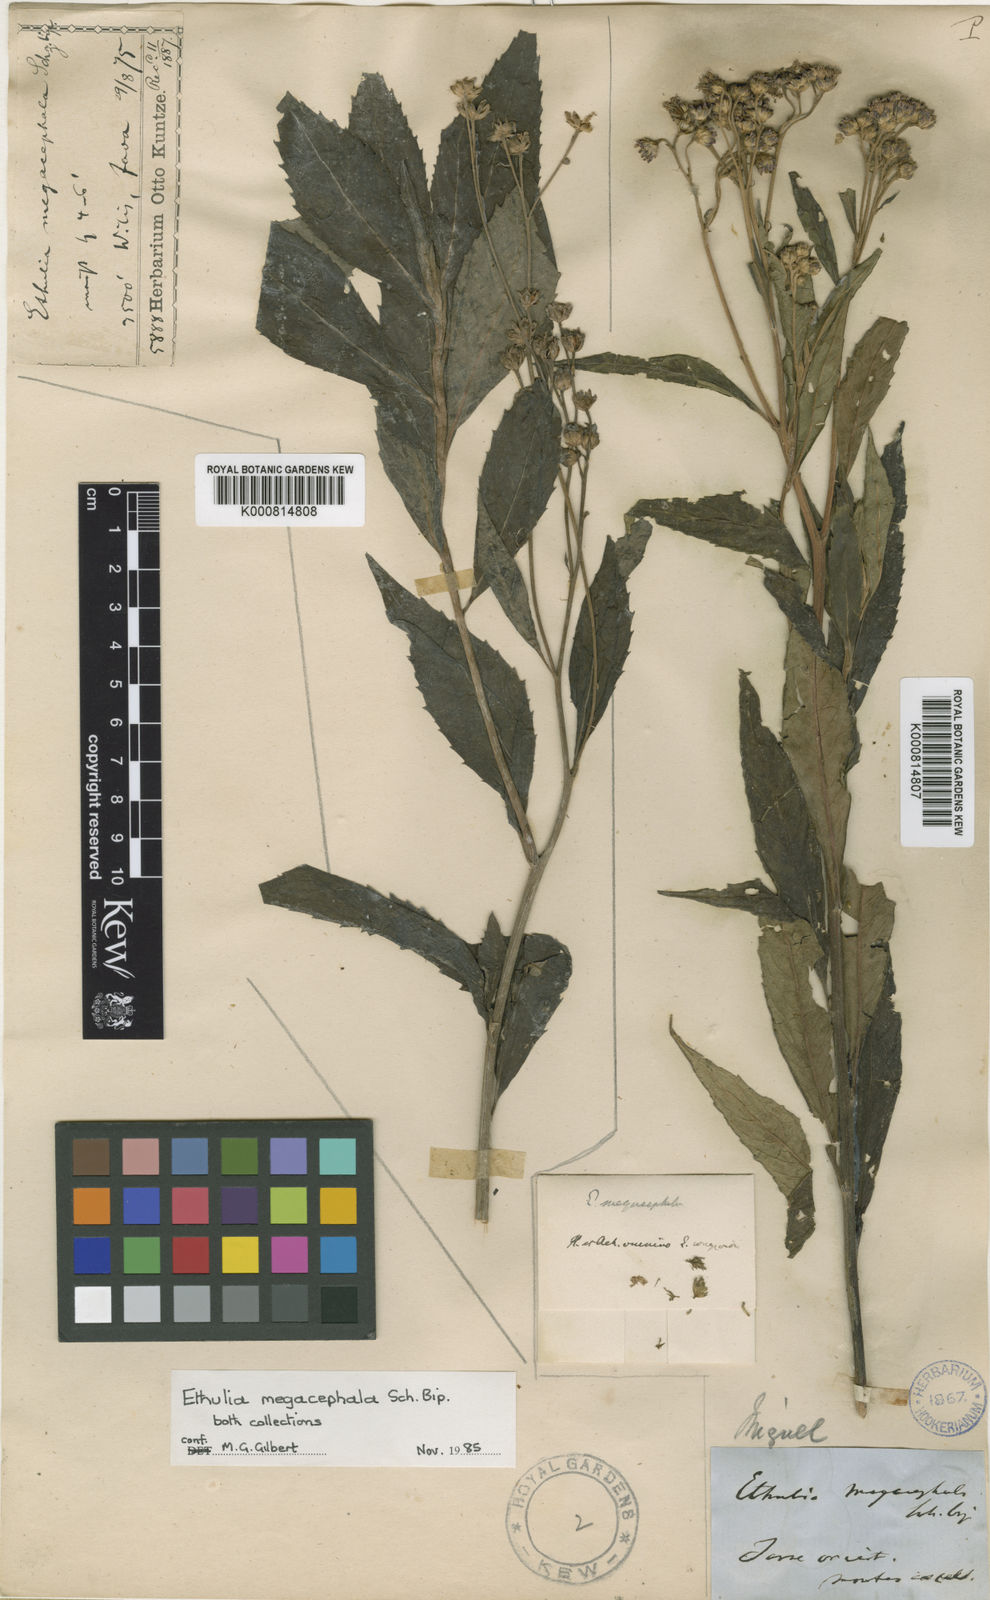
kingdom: Plantae
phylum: Tracheophyta
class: Magnoliopsida
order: Asterales
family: Asteraceae
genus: Ethulia
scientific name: Ethulia
